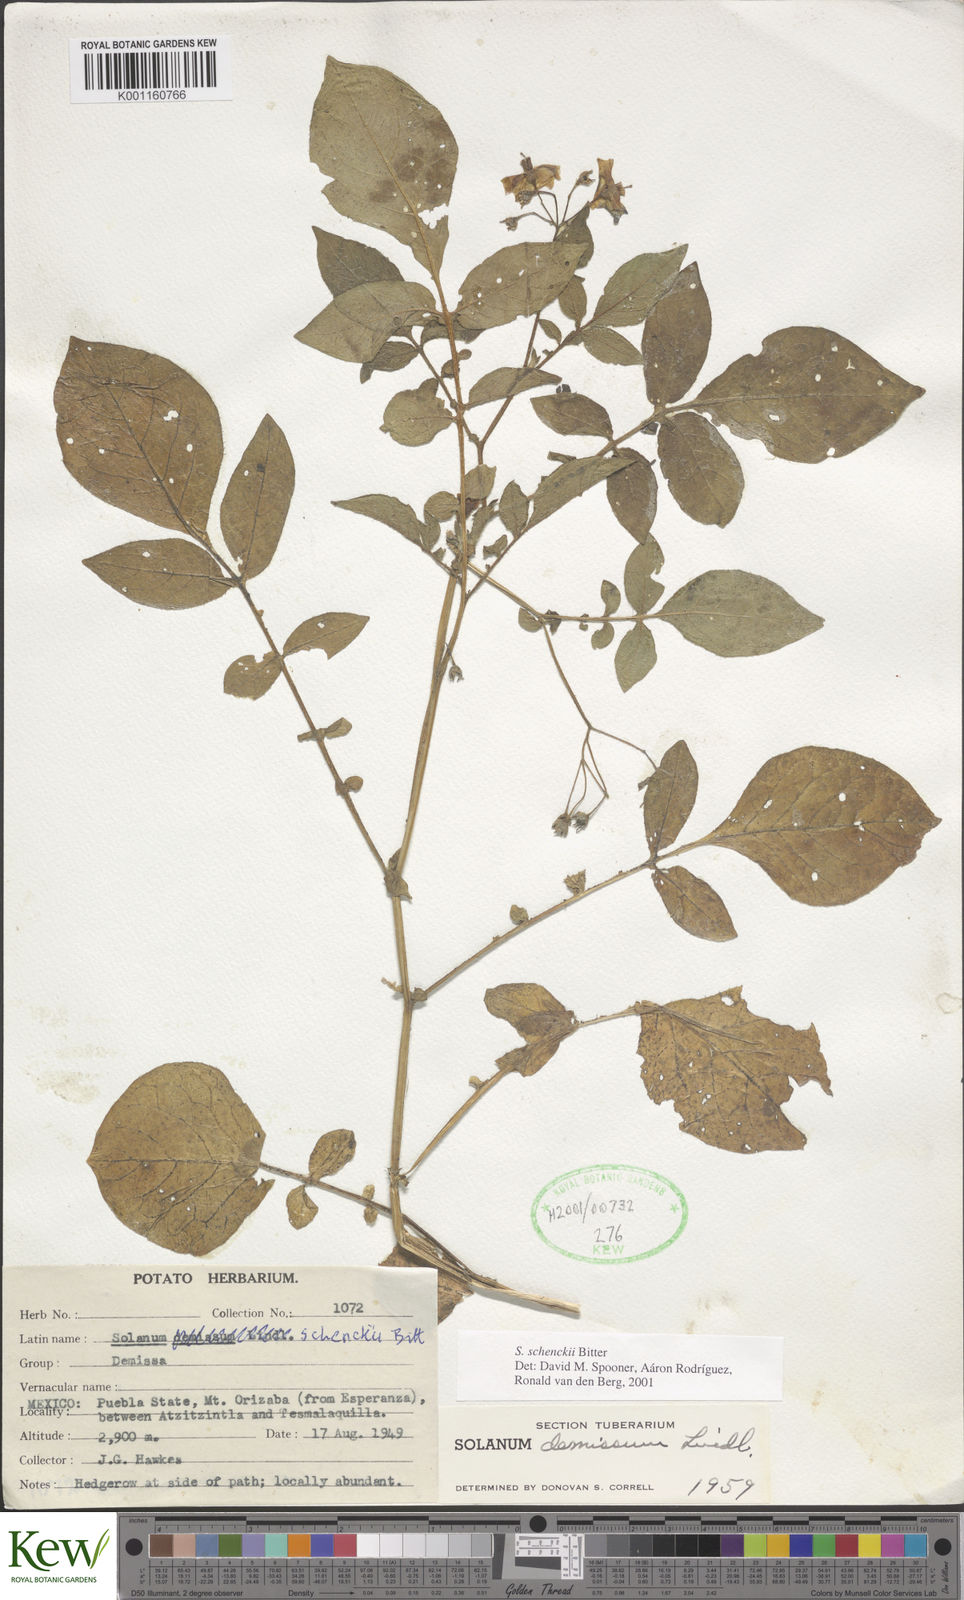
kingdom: Plantae
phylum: Tracheophyta
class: Magnoliopsida
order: Solanales
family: Solanaceae
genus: Solanum
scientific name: Solanum schenckii
